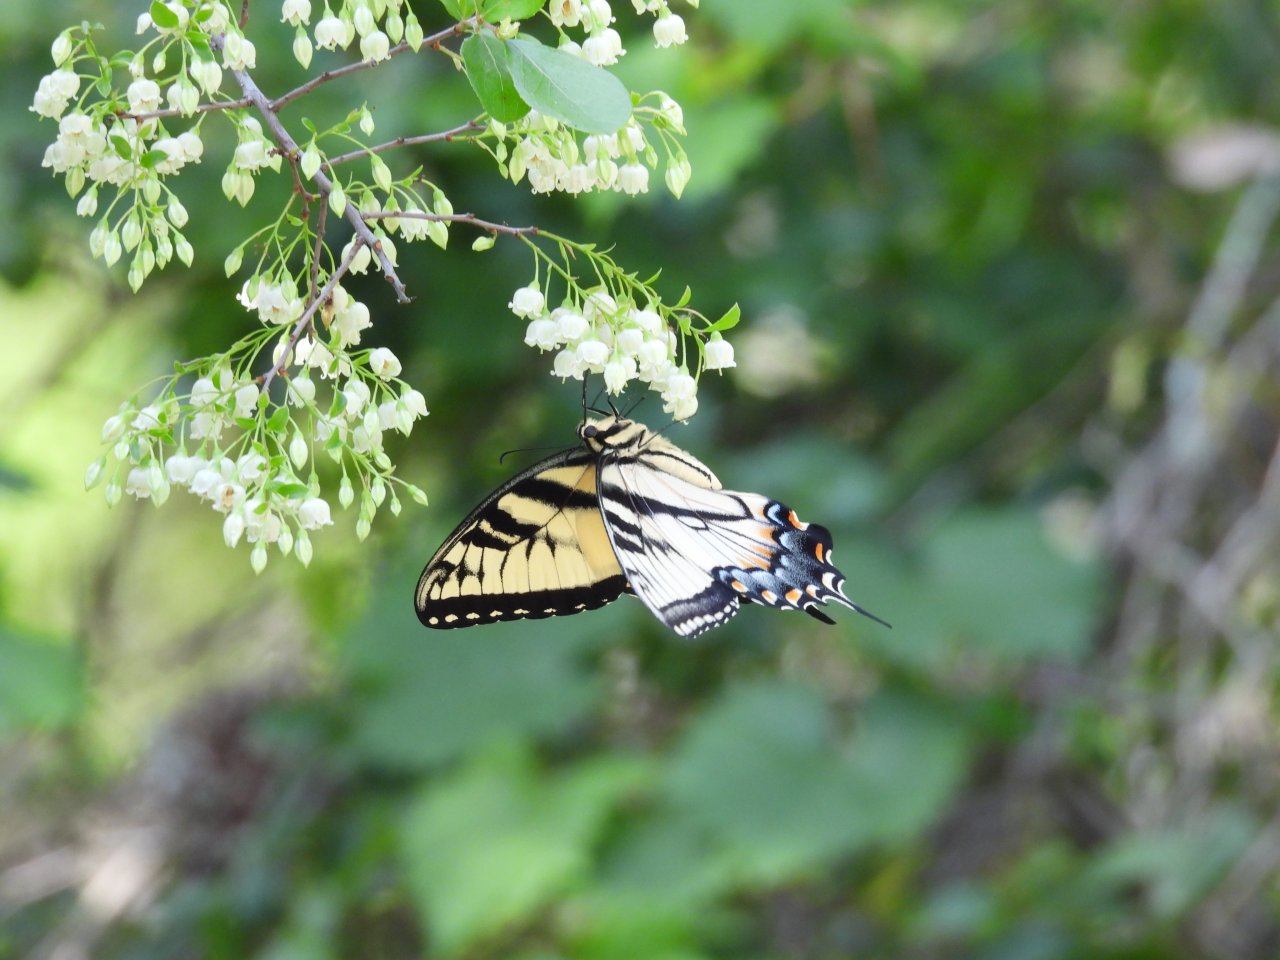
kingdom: Animalia
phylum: Arthropoda
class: Insecta
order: Lepidoptera
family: Papilionidae
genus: Pterourus
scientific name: Pterourus glaucus
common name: Eastern Tiger Swallowtail
